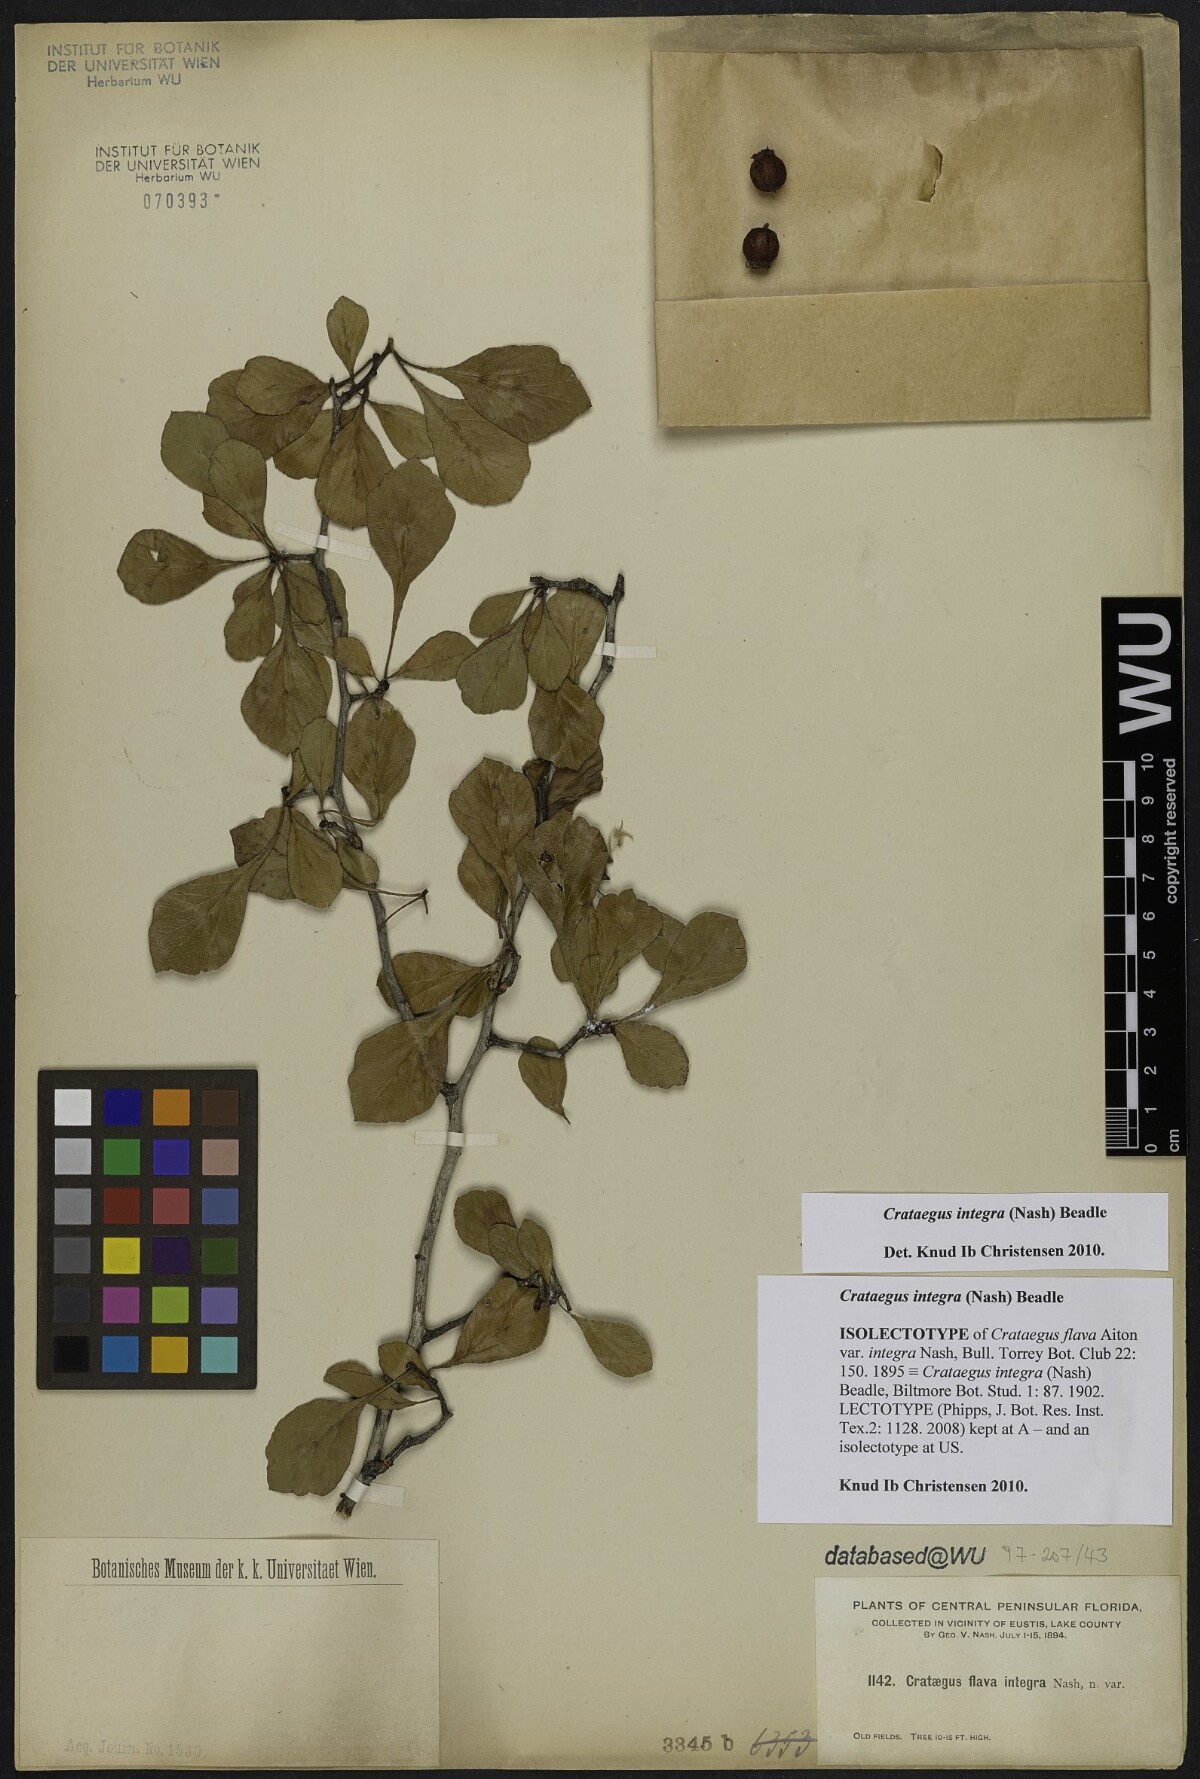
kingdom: Plantae
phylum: Tracheophyta
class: Magnoliopsida
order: Rosales
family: Rosaceae
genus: Crataegus
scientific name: Crataegus lassa
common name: Florida hawthorn
